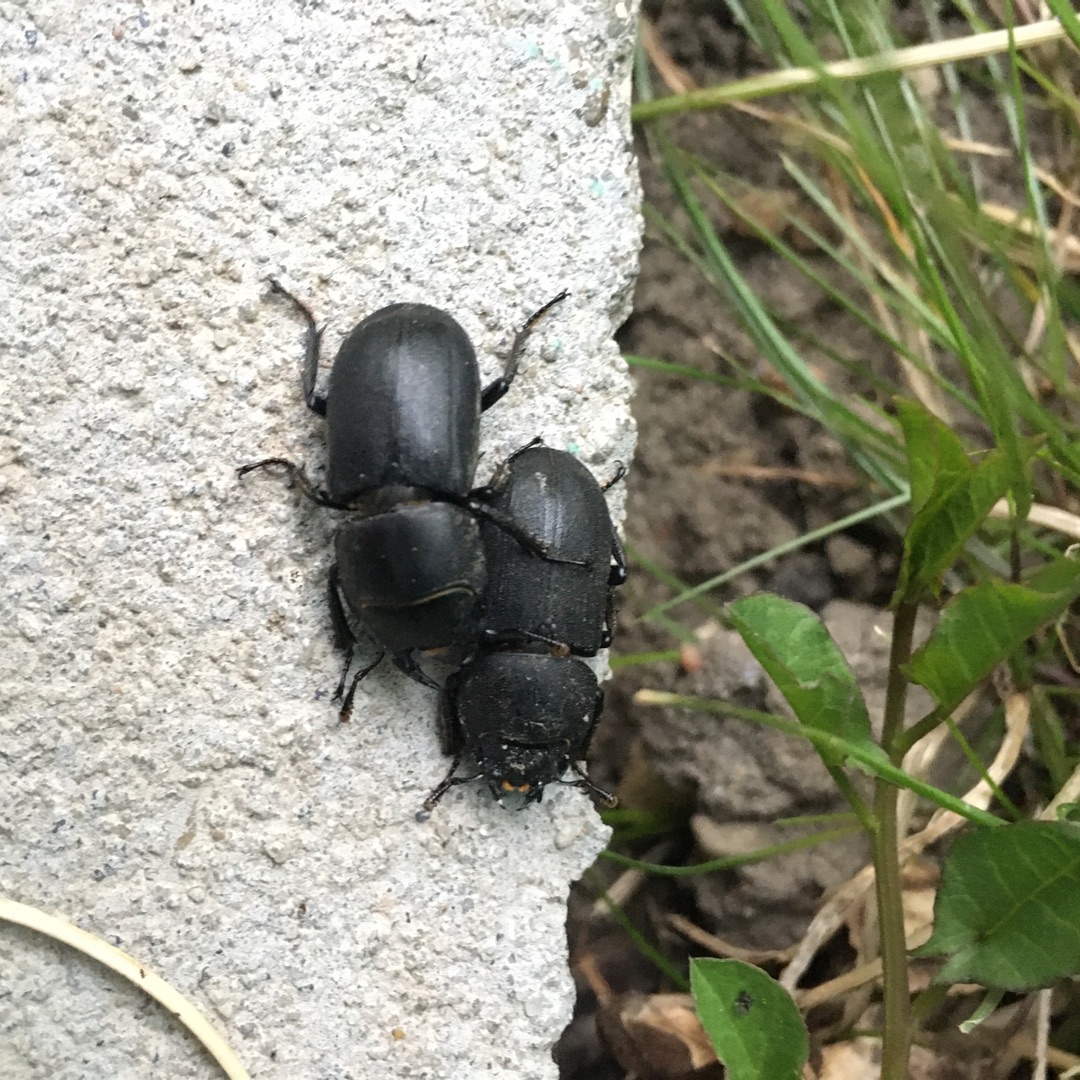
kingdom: Animalia
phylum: Arthropoda
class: Insecta
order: Coleoptera
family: Lucanidae
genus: Dorcus
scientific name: Dorcus parallelipipedus
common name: Bøghjort
